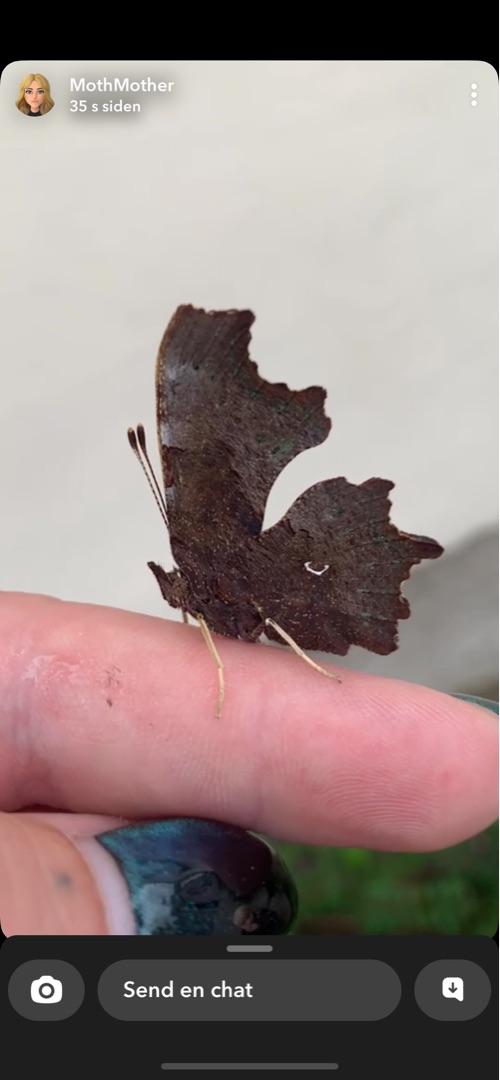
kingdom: Animalia
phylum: Arthropoda
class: Insecta
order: Lepidoptera
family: Nymphalidae
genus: Polygonia
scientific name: Polygonia c-album
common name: Det hvide C
